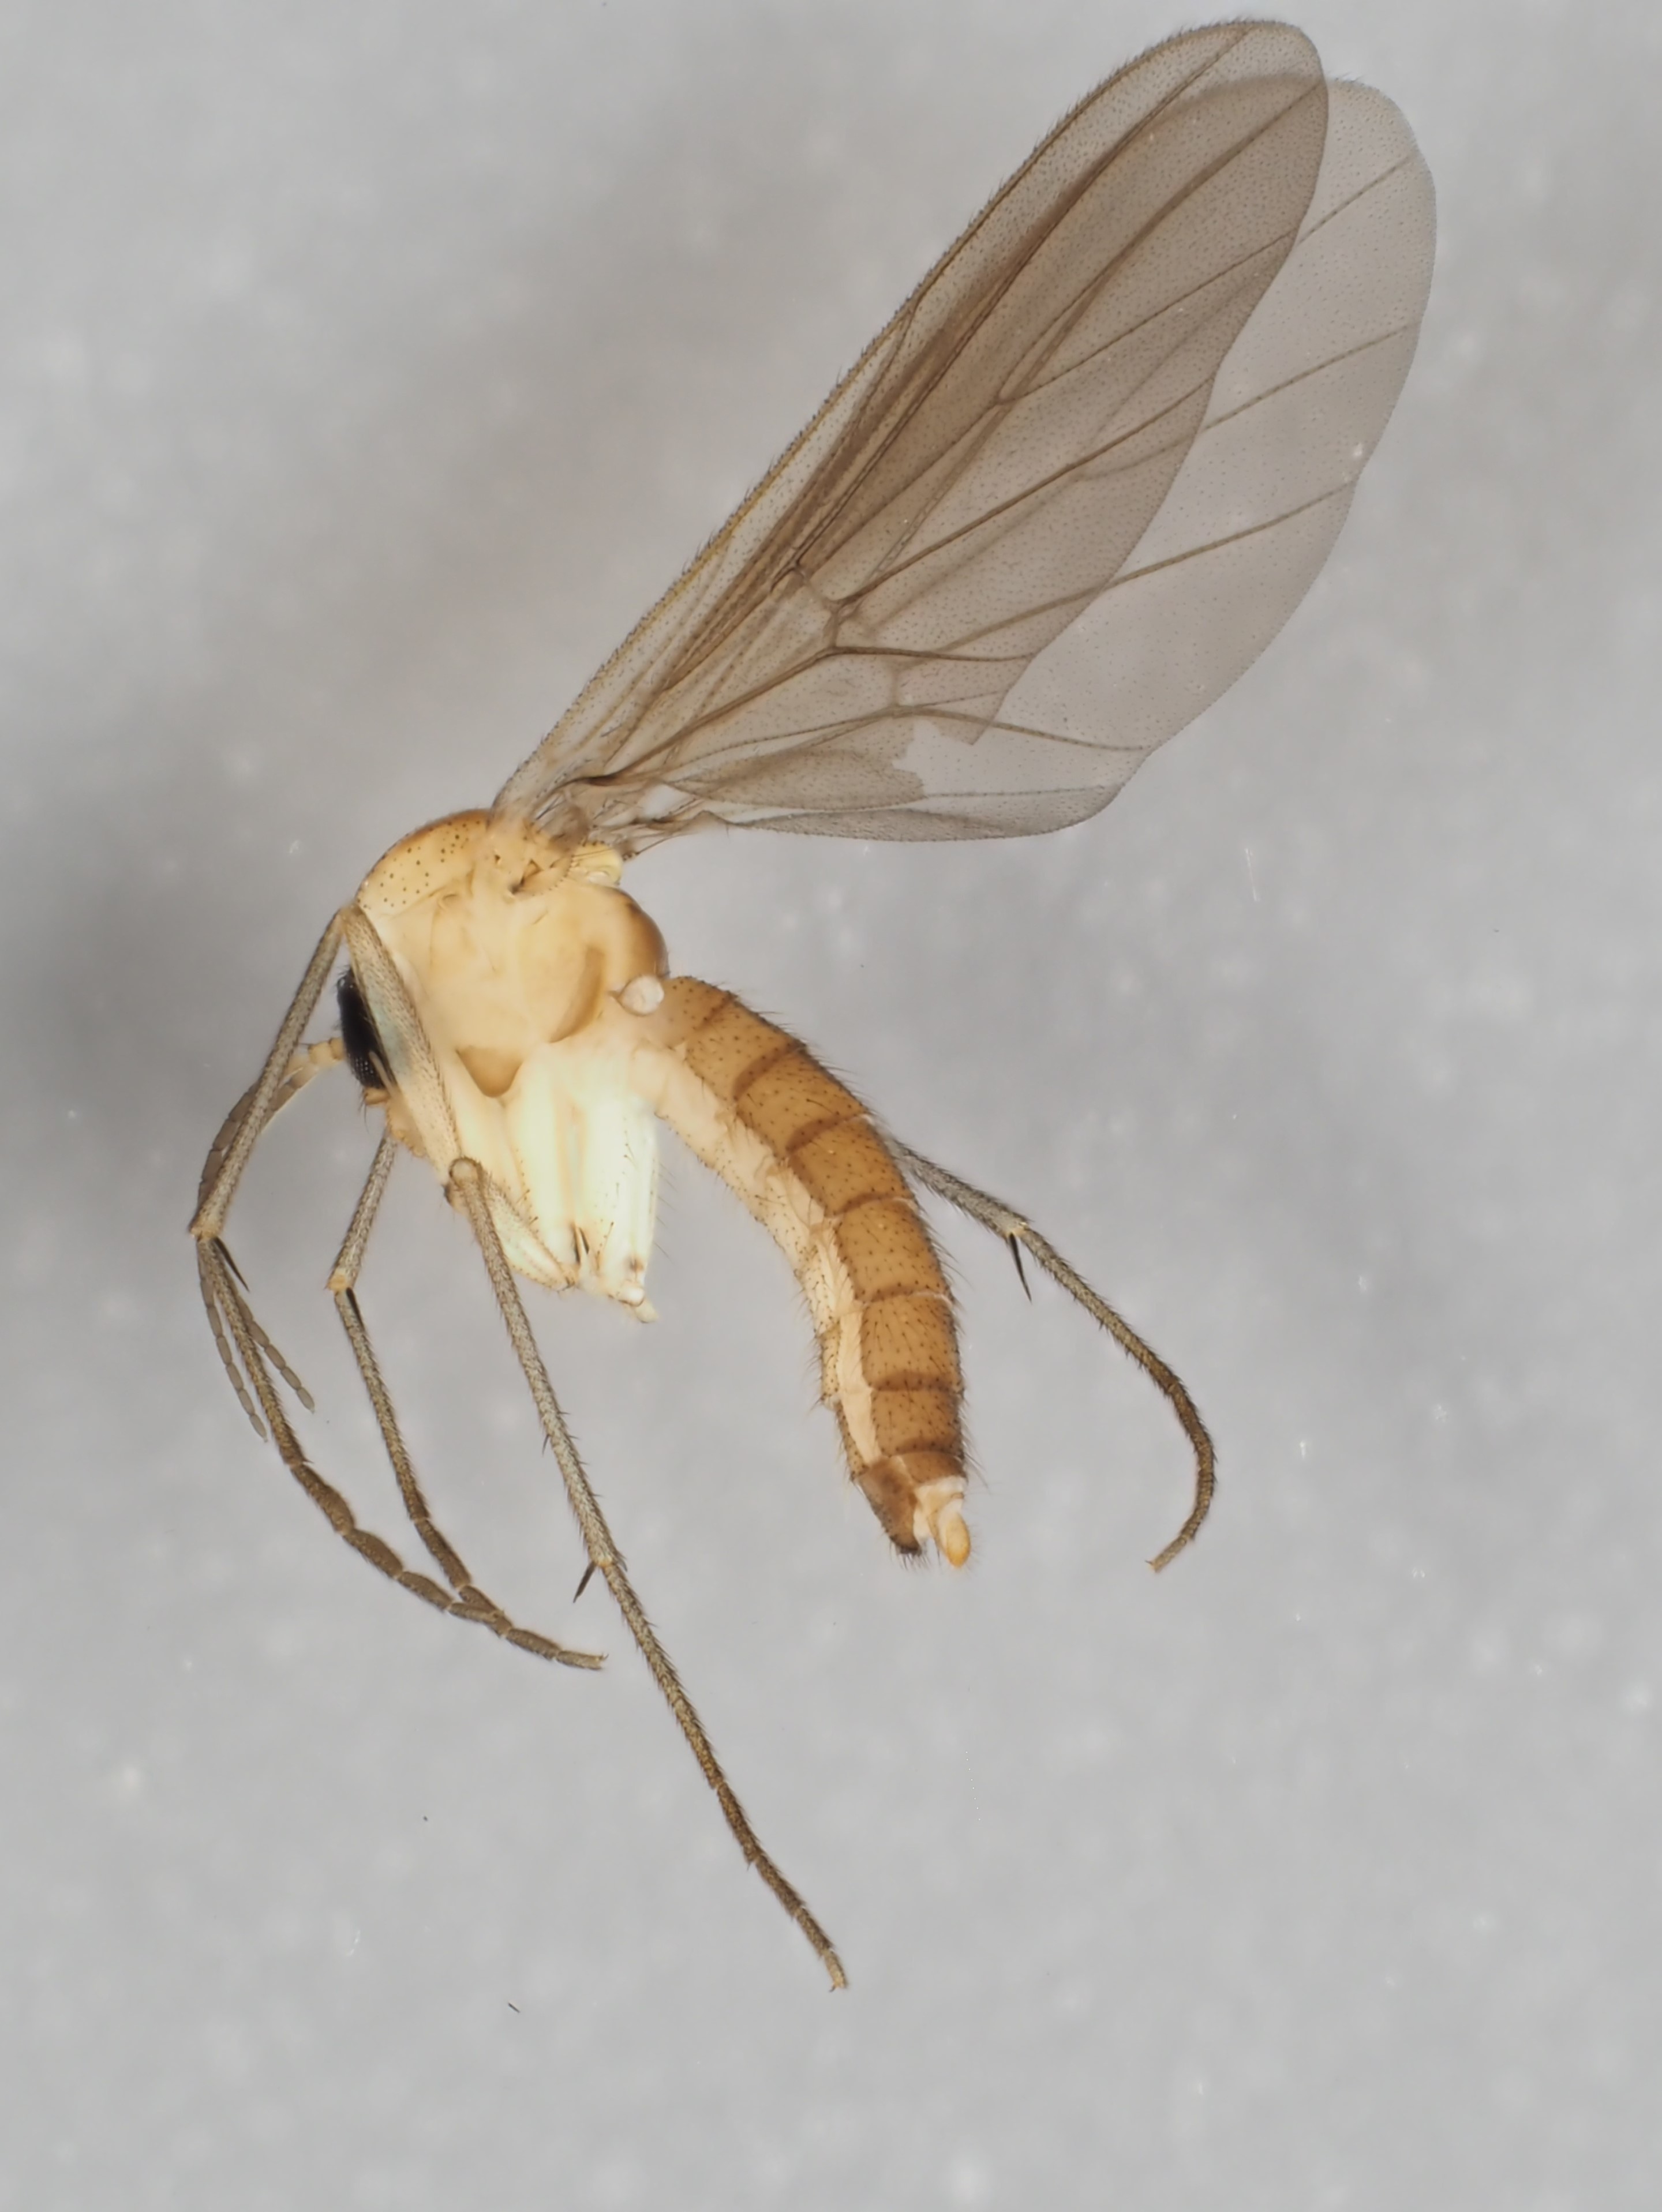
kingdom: Animalia
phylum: Arthropoda
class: Insecta
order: Diptera
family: Diadocidiidae
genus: Diadocidia
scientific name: Diadocidia ferruginosa
